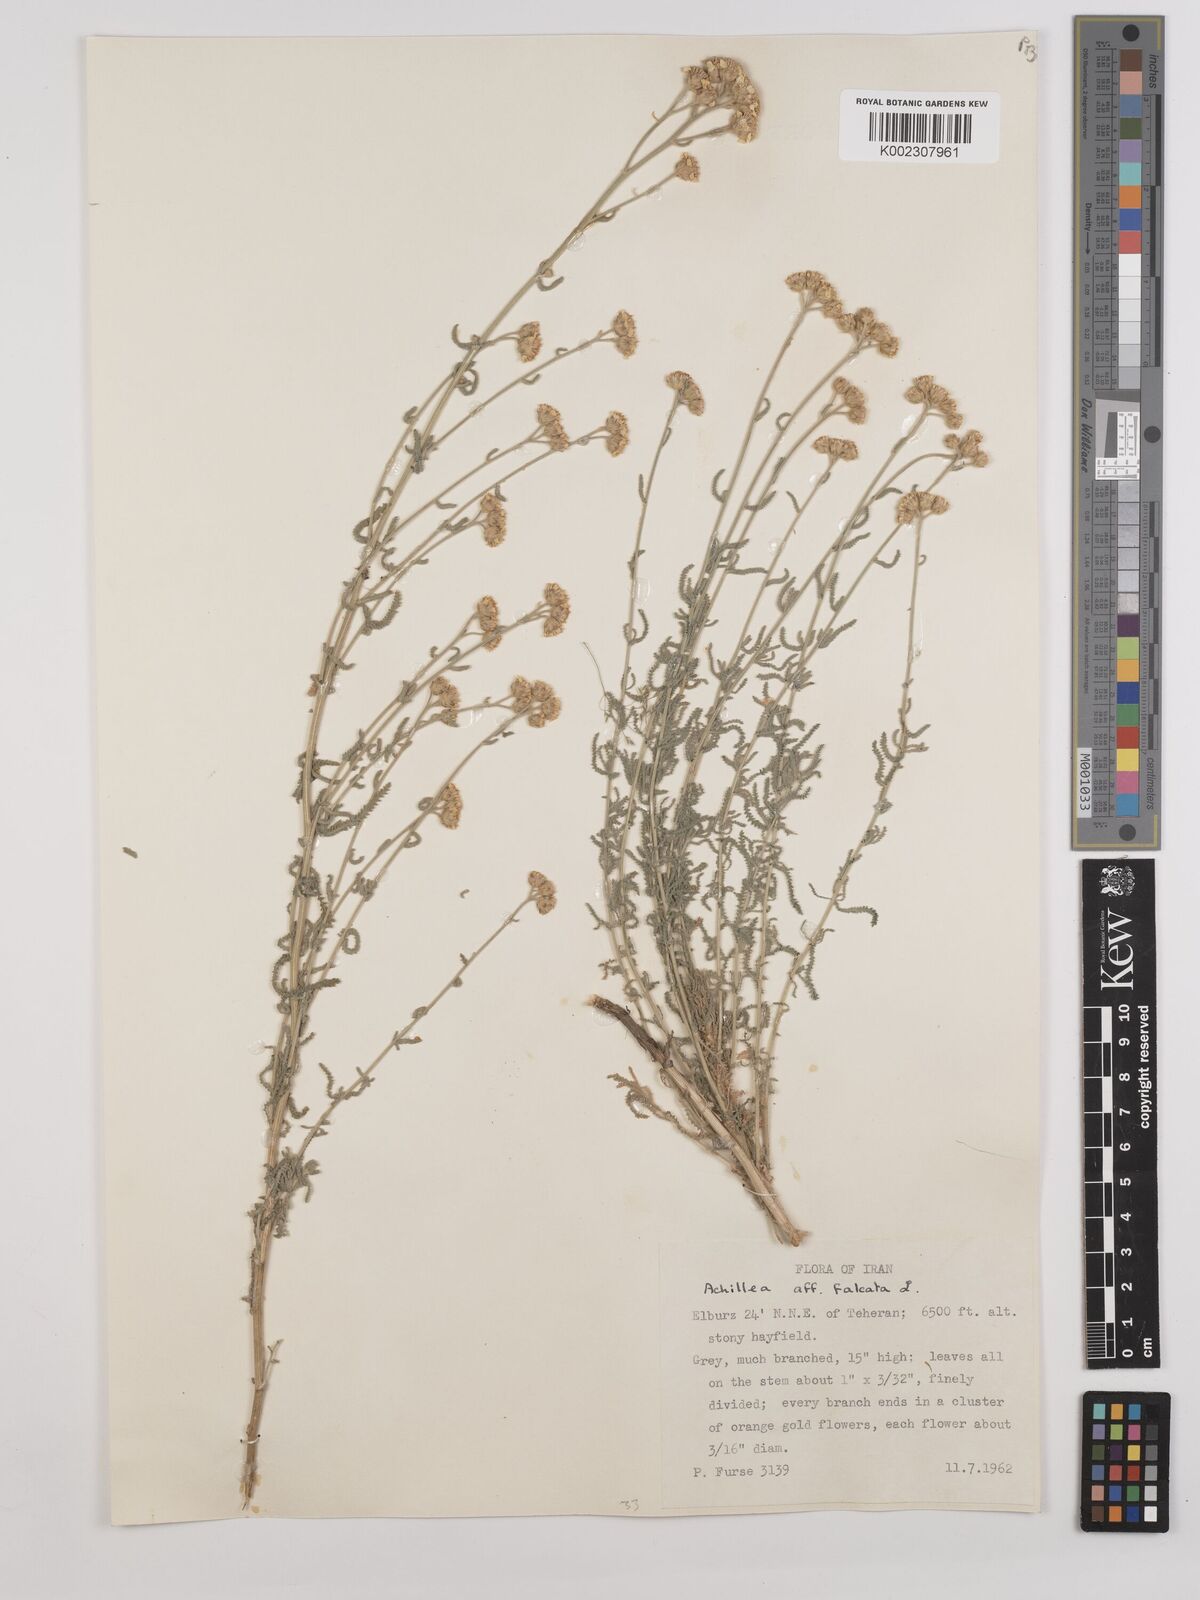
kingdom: Plantae
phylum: Tracheophyta
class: Magnoliopsida
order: Asterales
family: Asteraceae
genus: Achillea
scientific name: Achillea falcata
